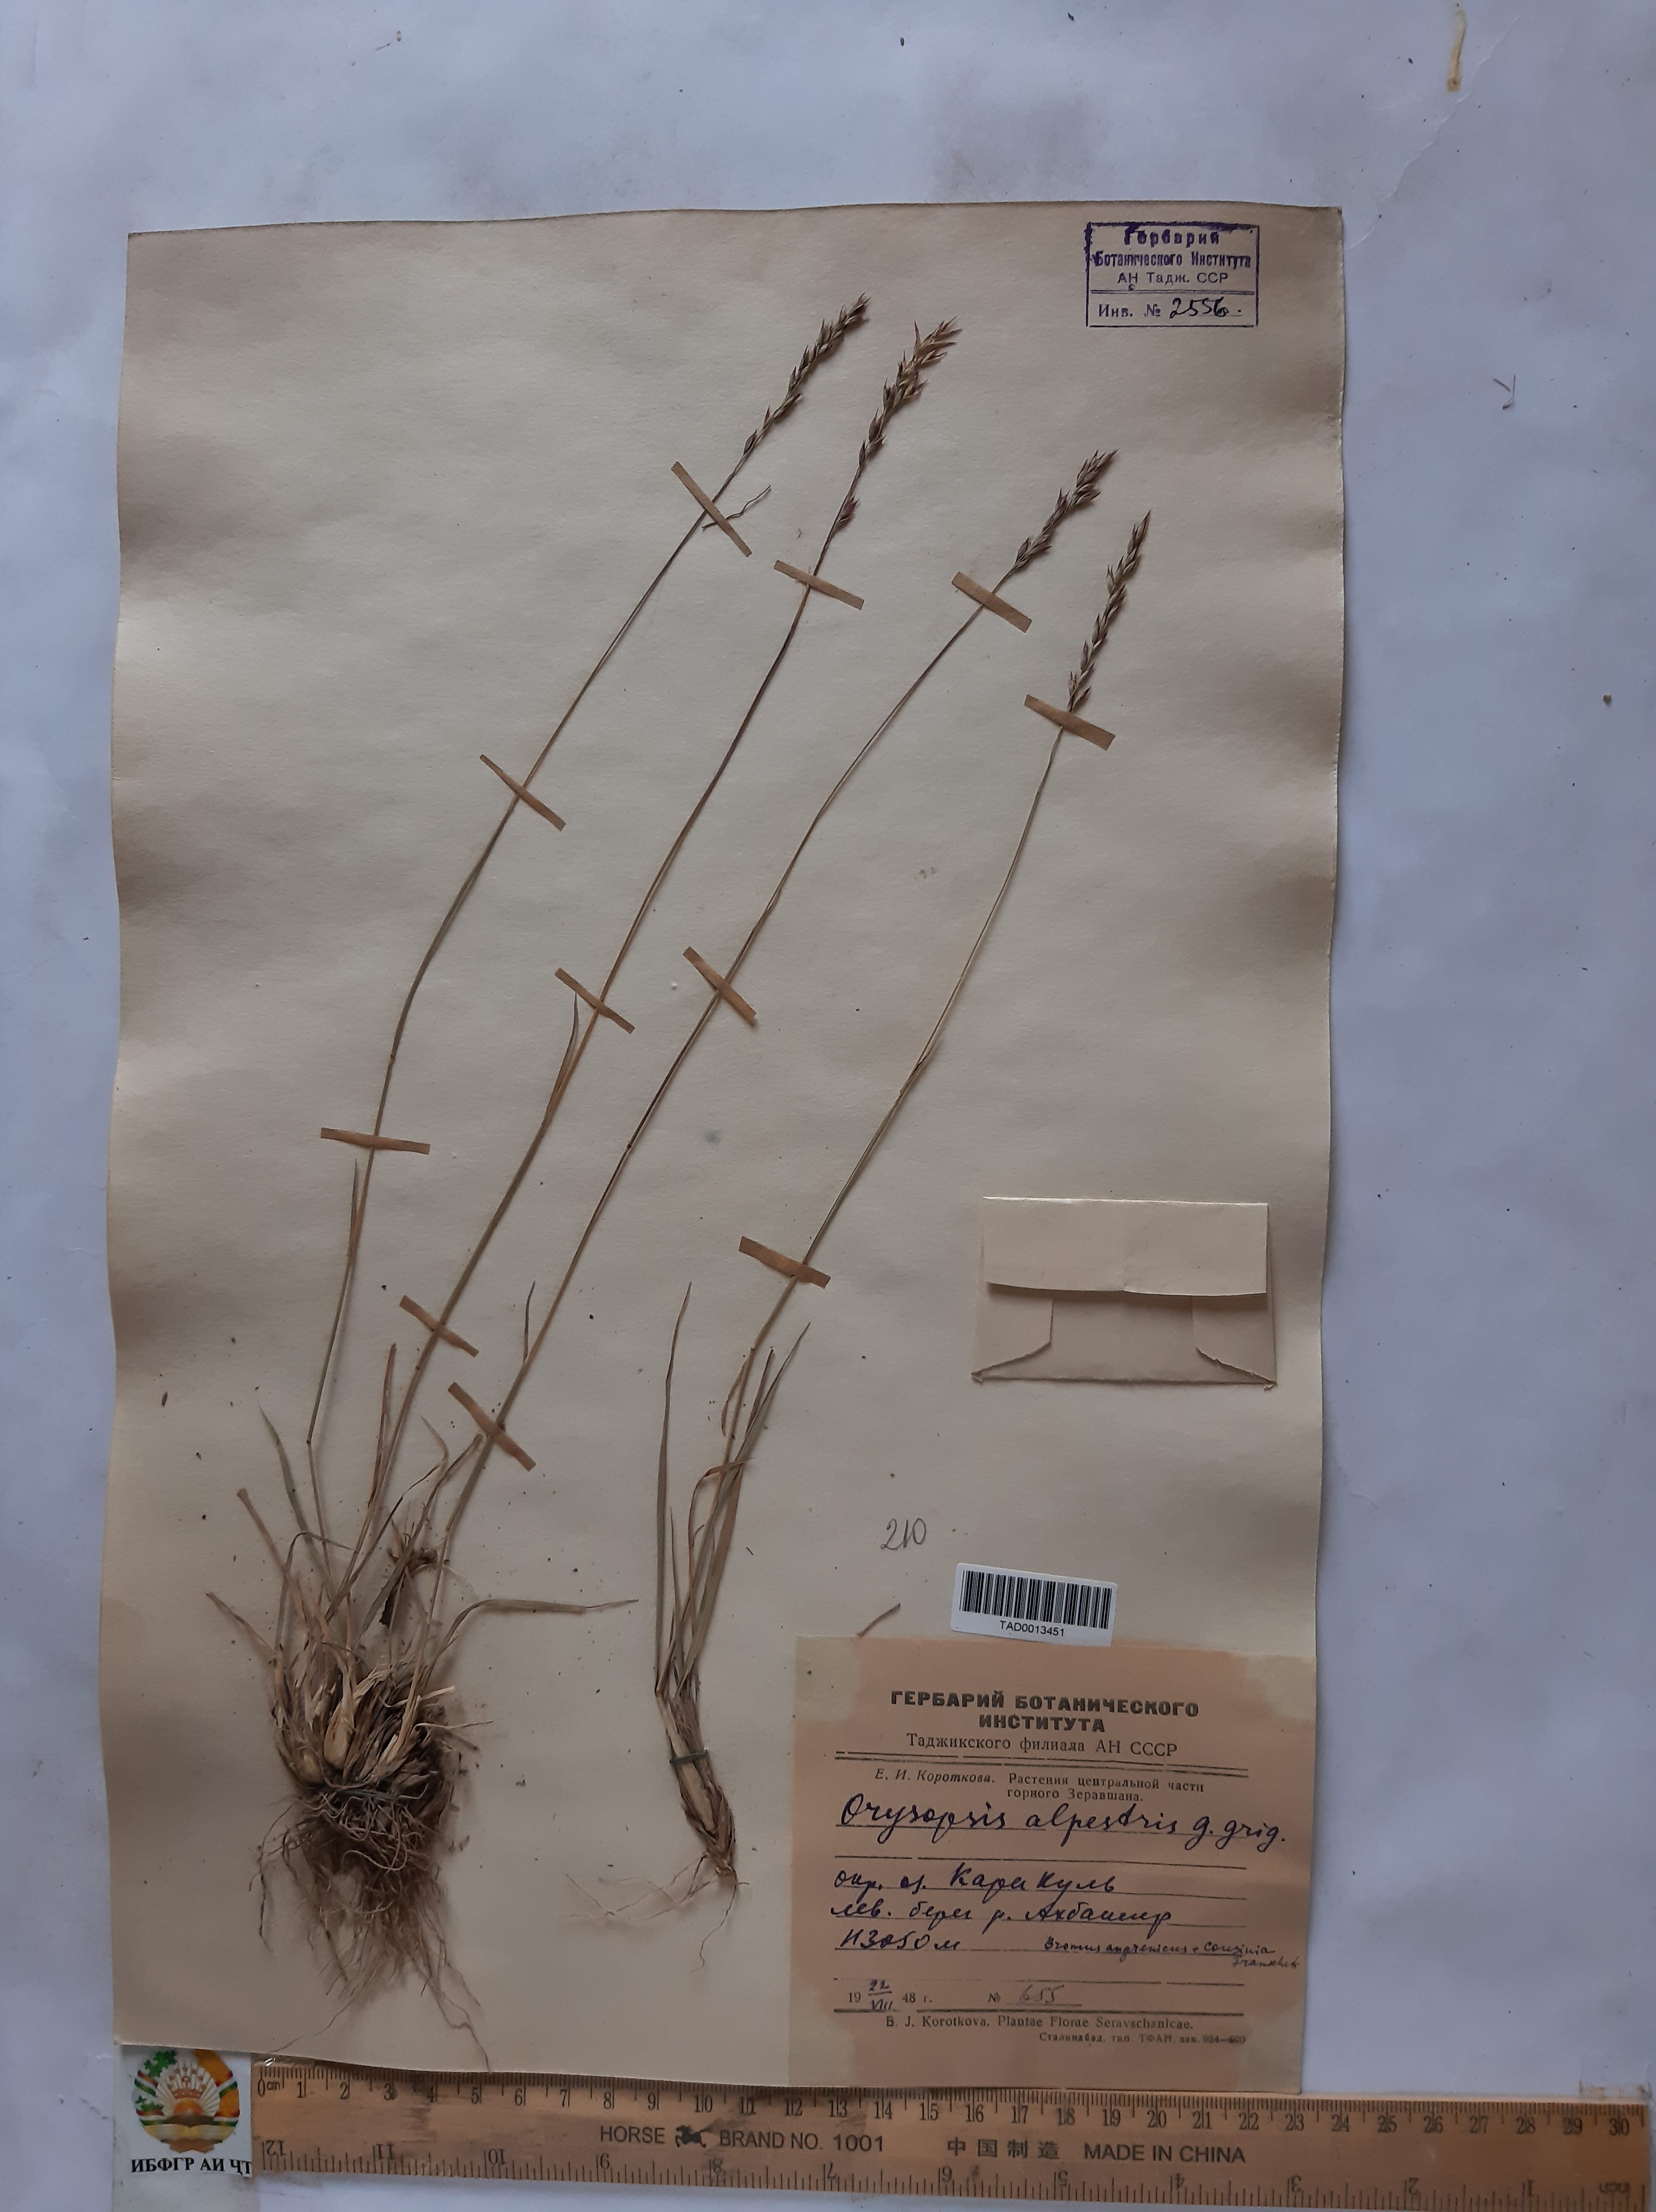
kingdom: Plantae
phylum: Tracheophyta
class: Liliopsida
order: Poales
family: Poaceae
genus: Piptatherum
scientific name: Piptatherum alpestre
